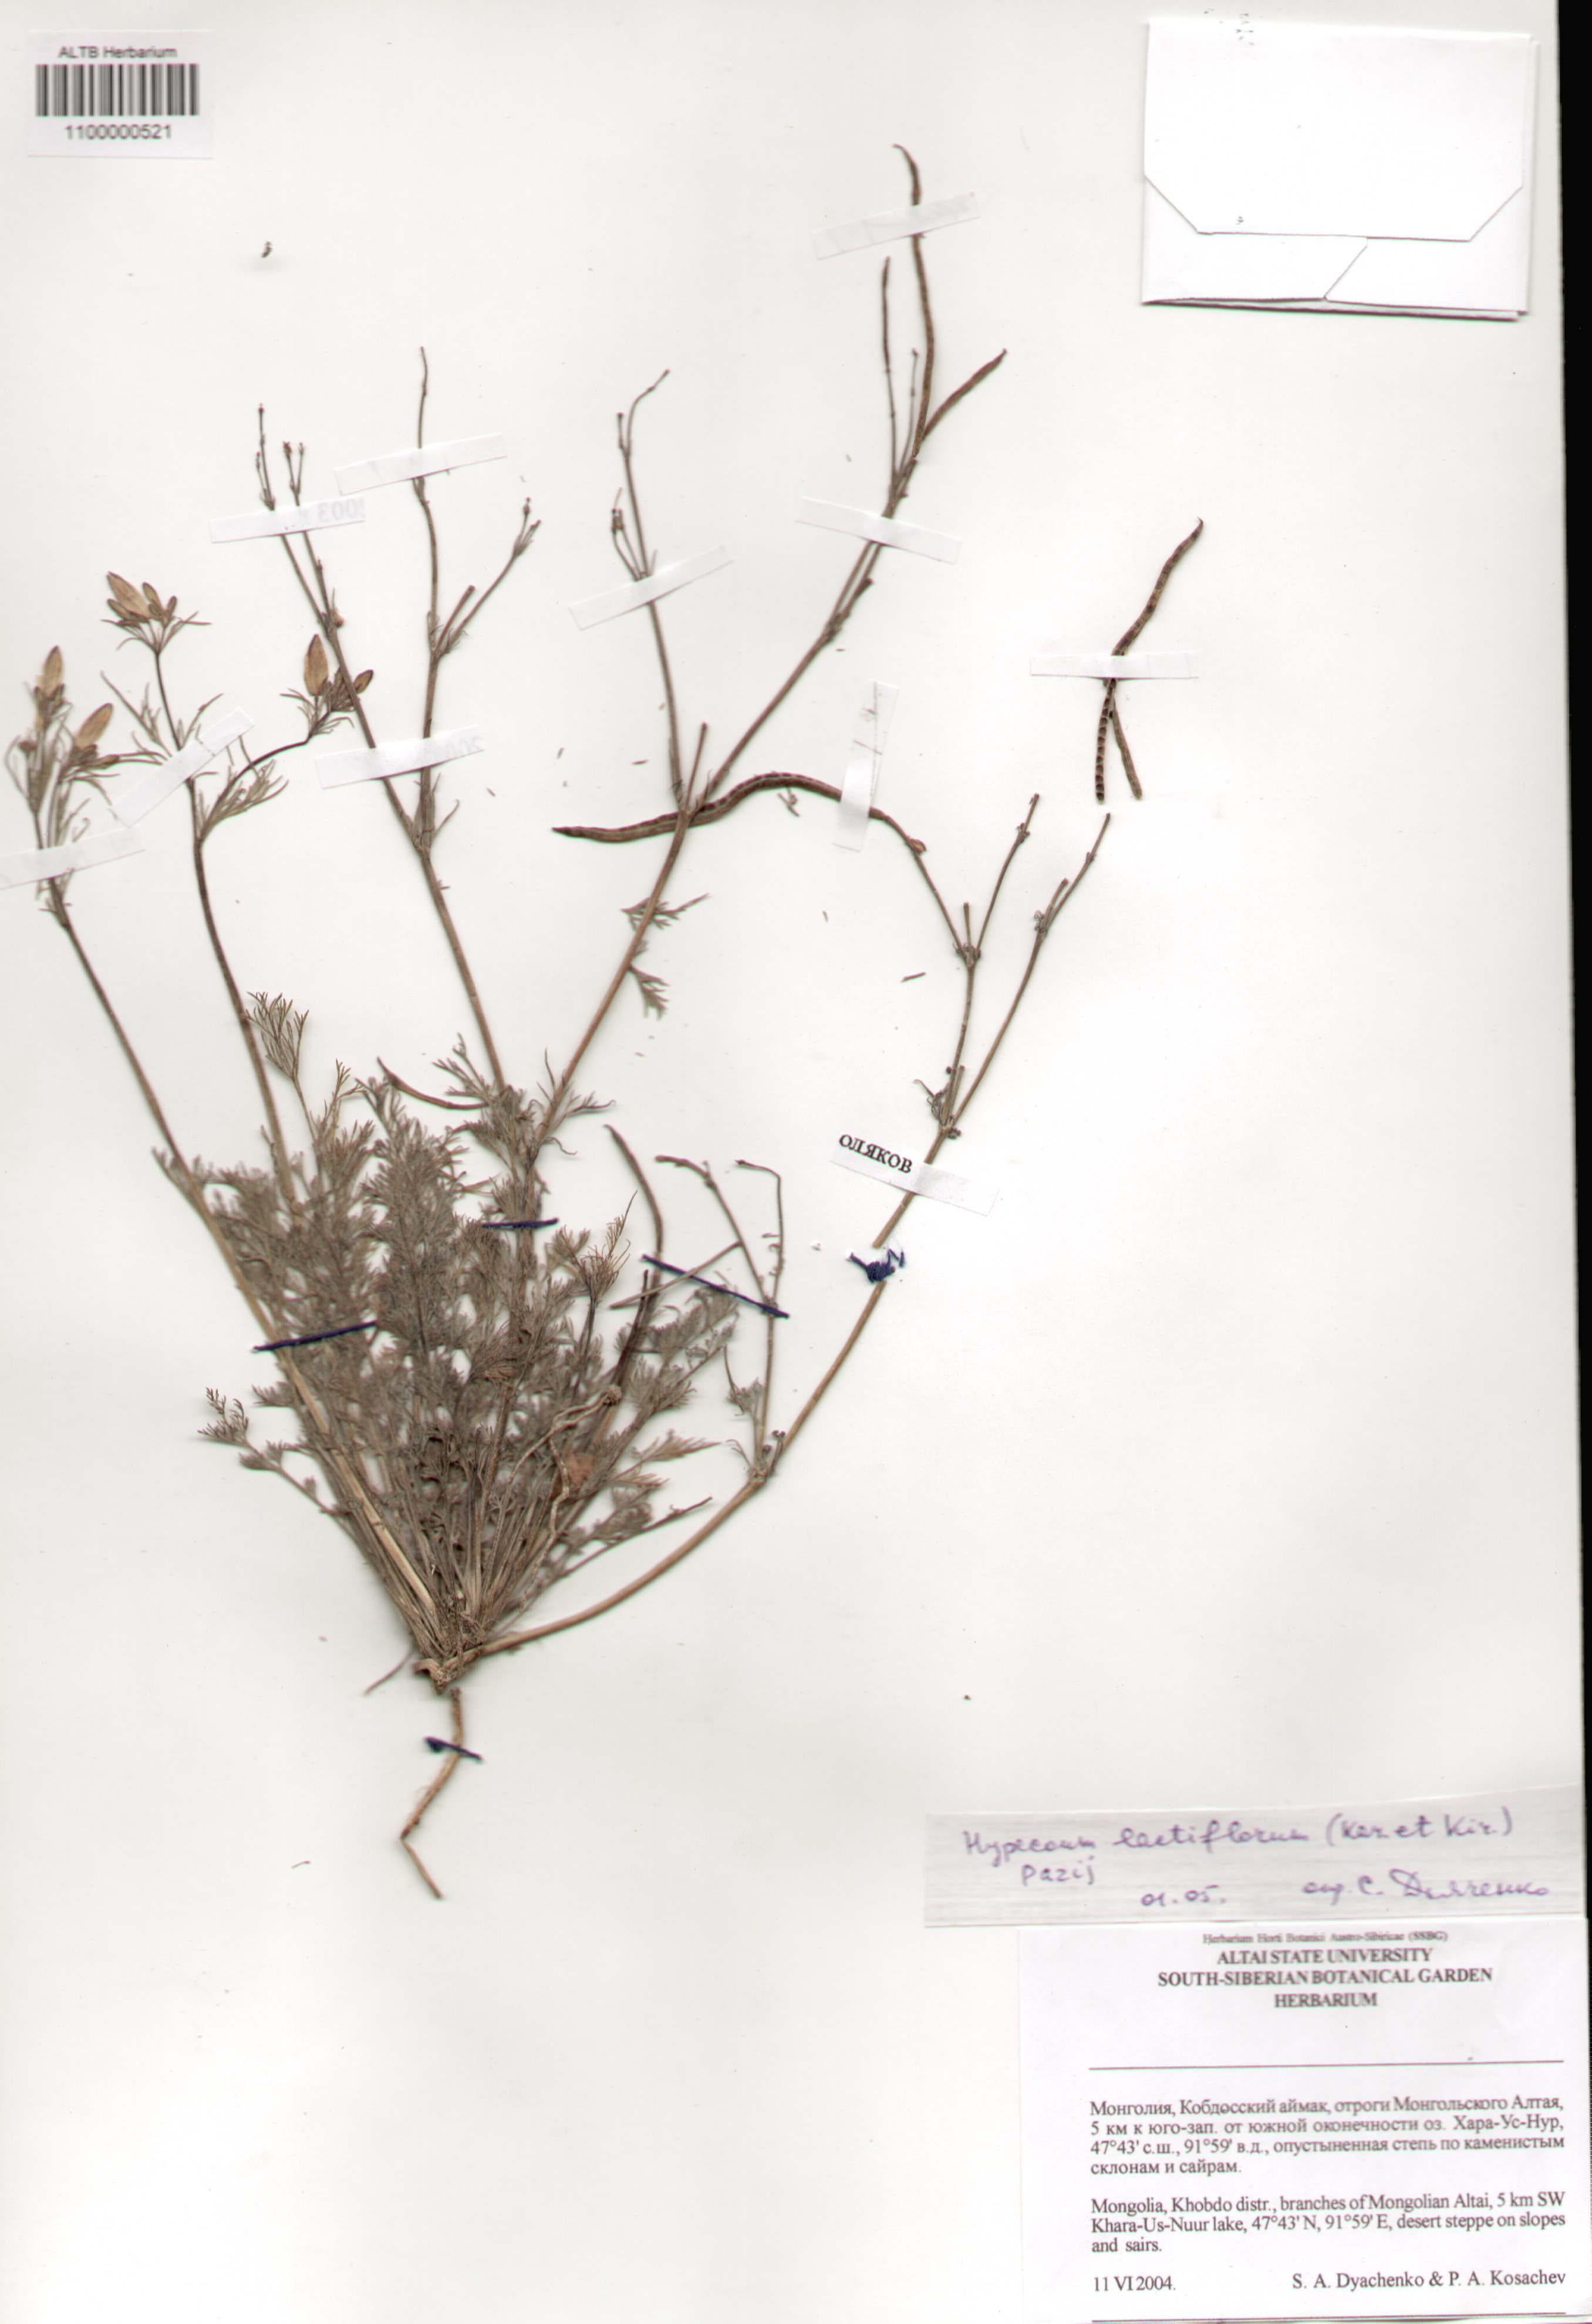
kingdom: Plantae
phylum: Tracheophyta
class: Magnoliopsida
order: Ranunculales
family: Papaveraceae
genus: Hypecoum
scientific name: Hypecoum lactiflorum
